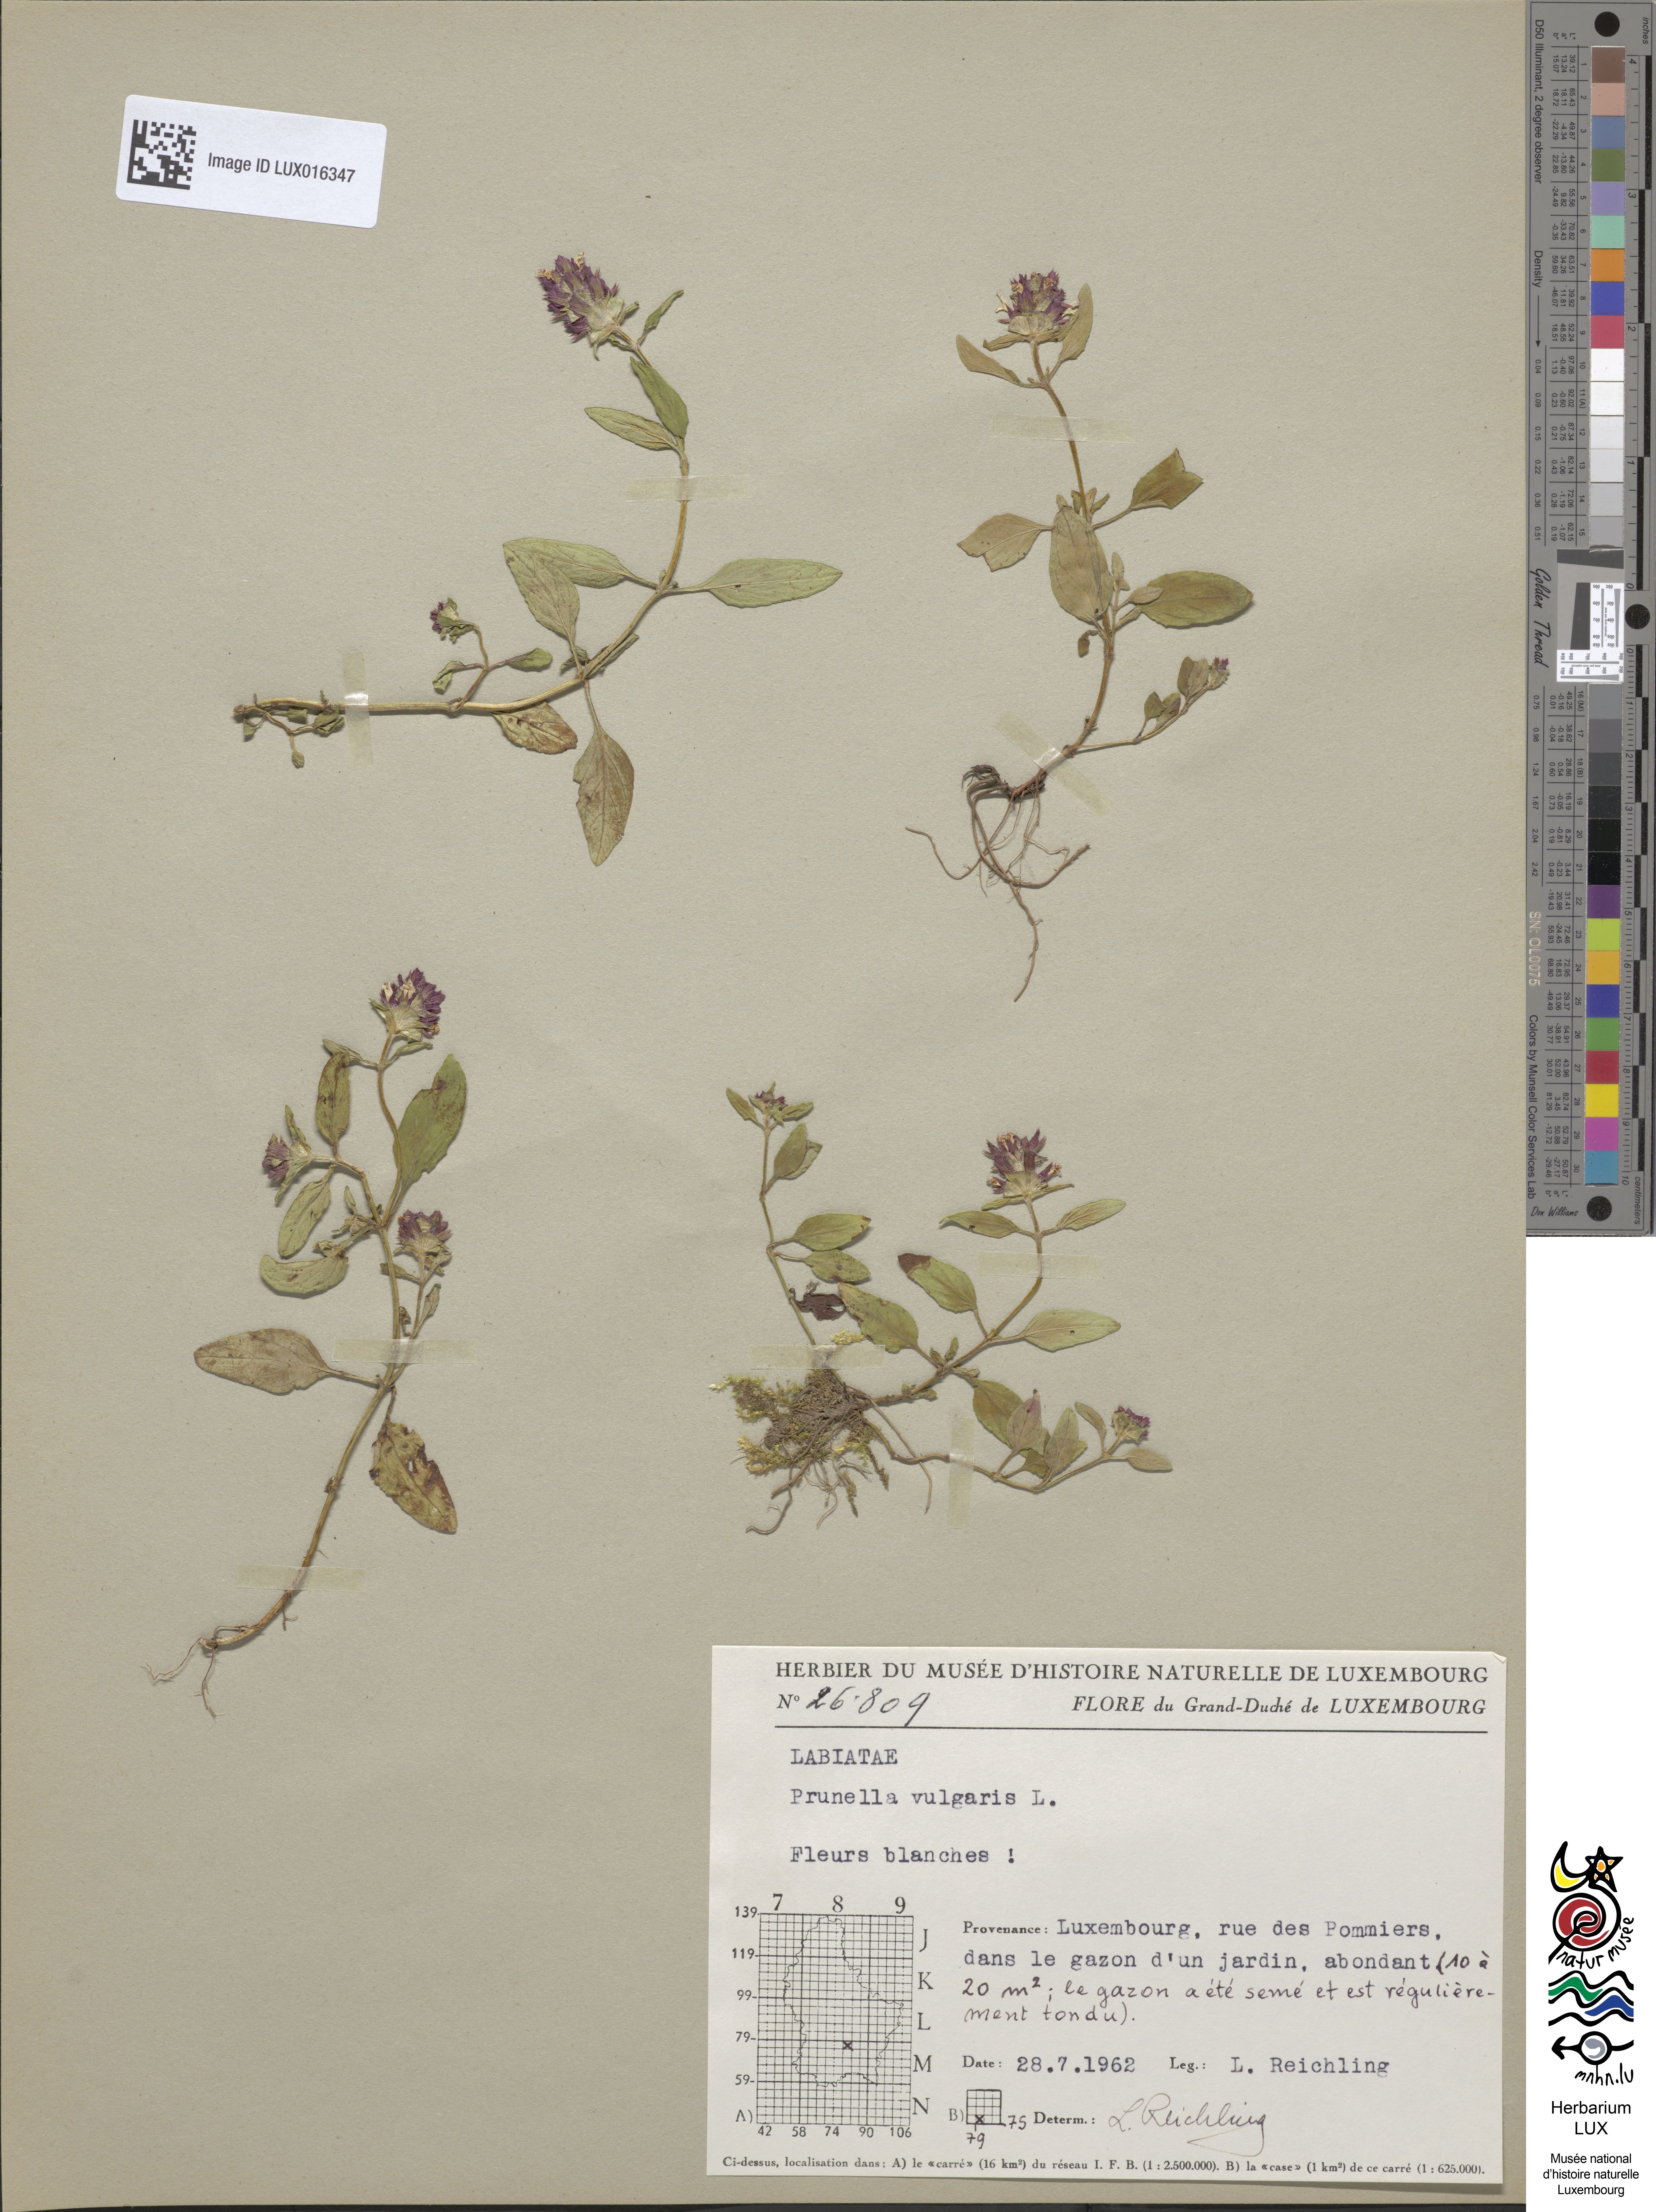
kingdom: Plantae
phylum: Tracheophyta
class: Magnoliopsida
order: Lamiales
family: Lamiaceae
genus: Prunella
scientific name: Prunella vulgaris
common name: Heal-all
